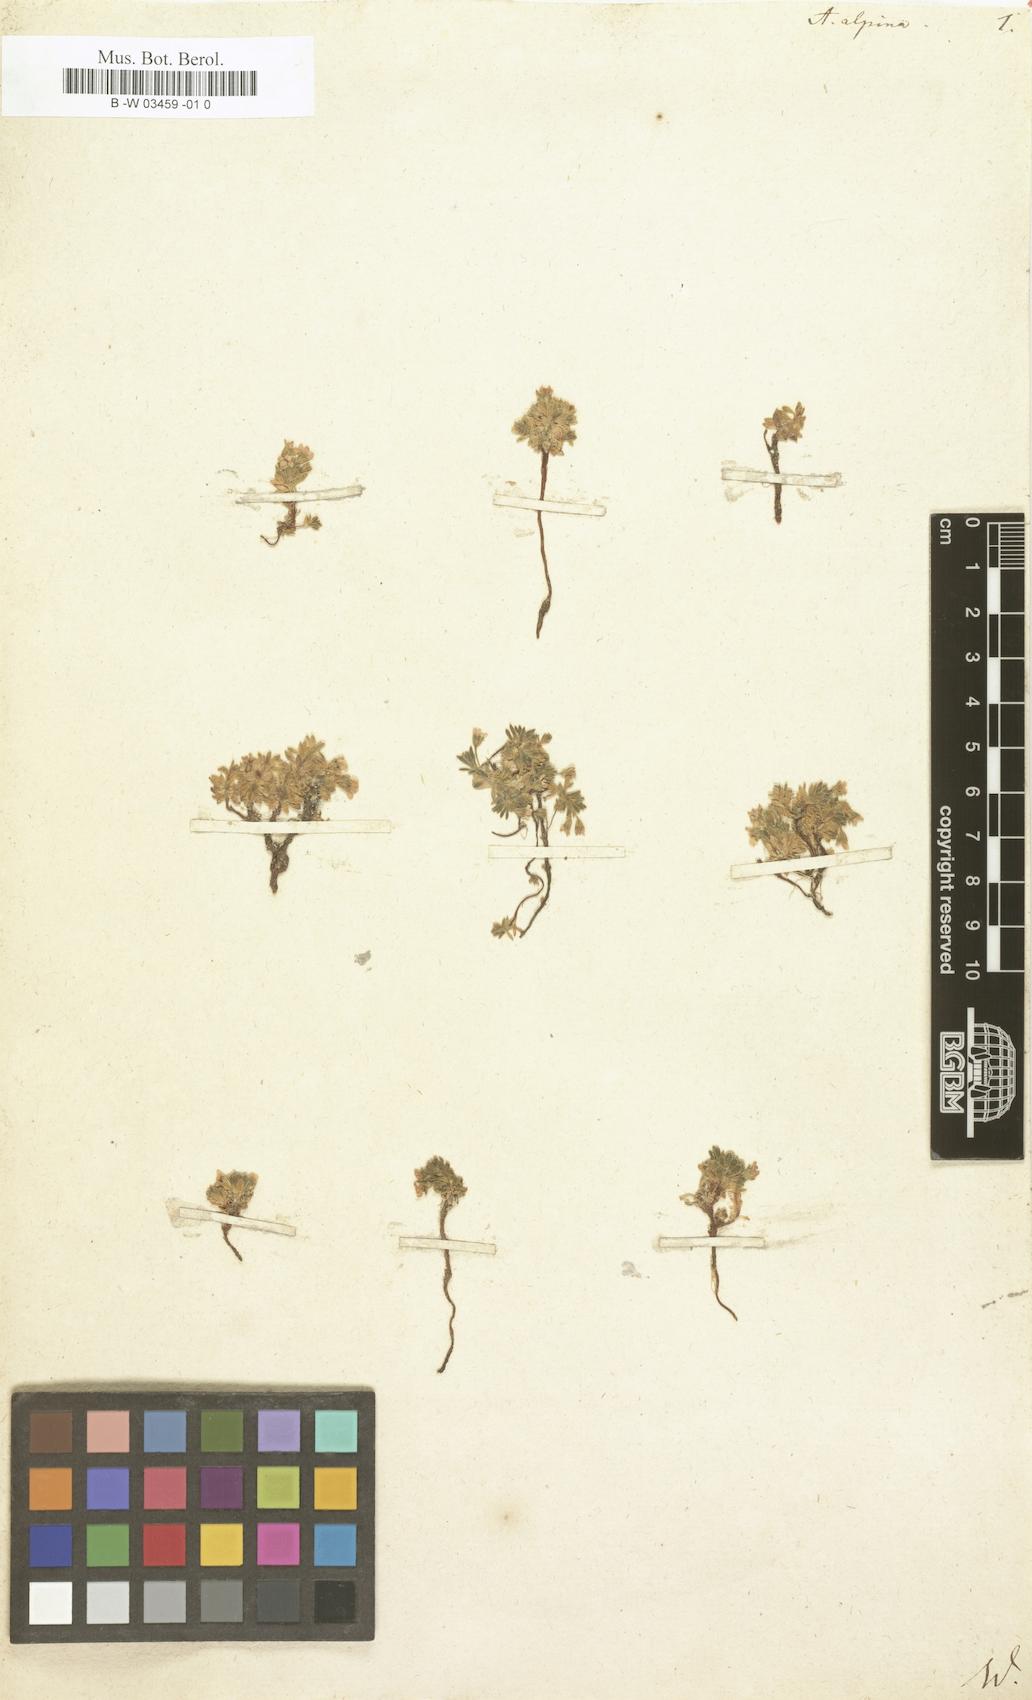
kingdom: Plantae
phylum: Tracheophyta
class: Magnoliopsida
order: Ericales
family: Primulaceae
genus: Androsace
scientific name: Androsace alpina
